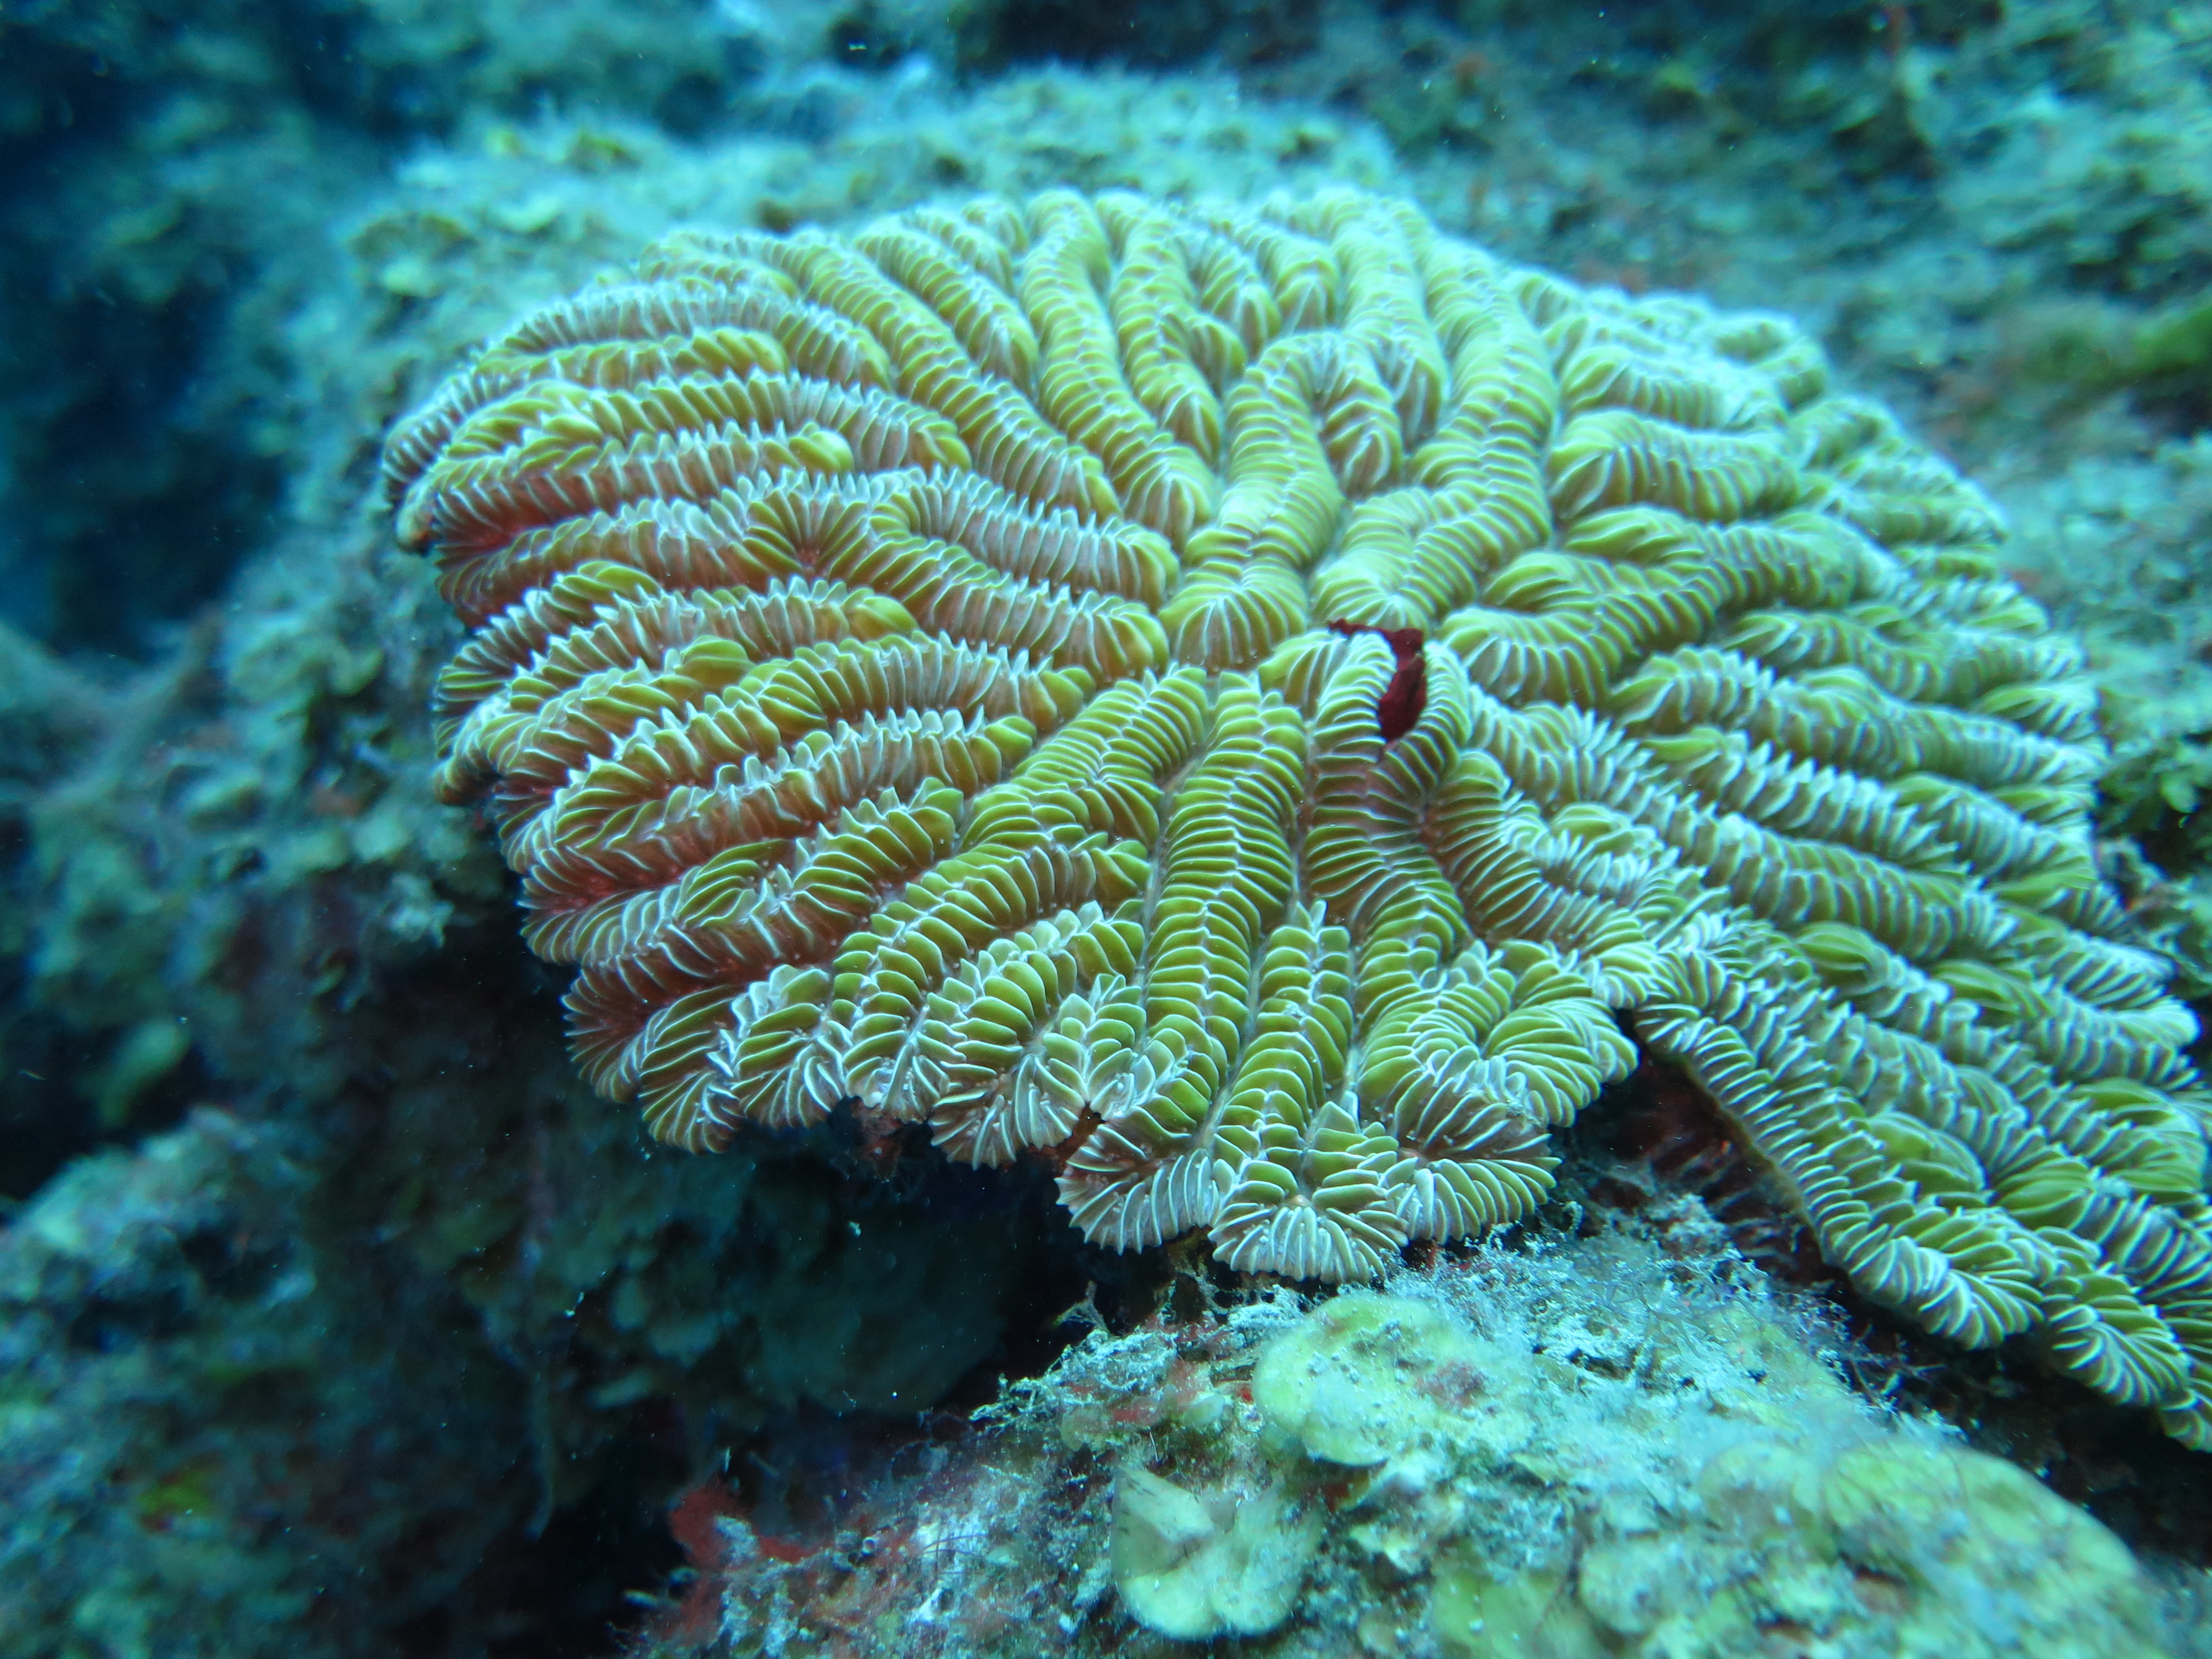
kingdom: Animalia
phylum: Cnidaria
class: Anthozoa
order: Scleractinia
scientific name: Scleractinia
